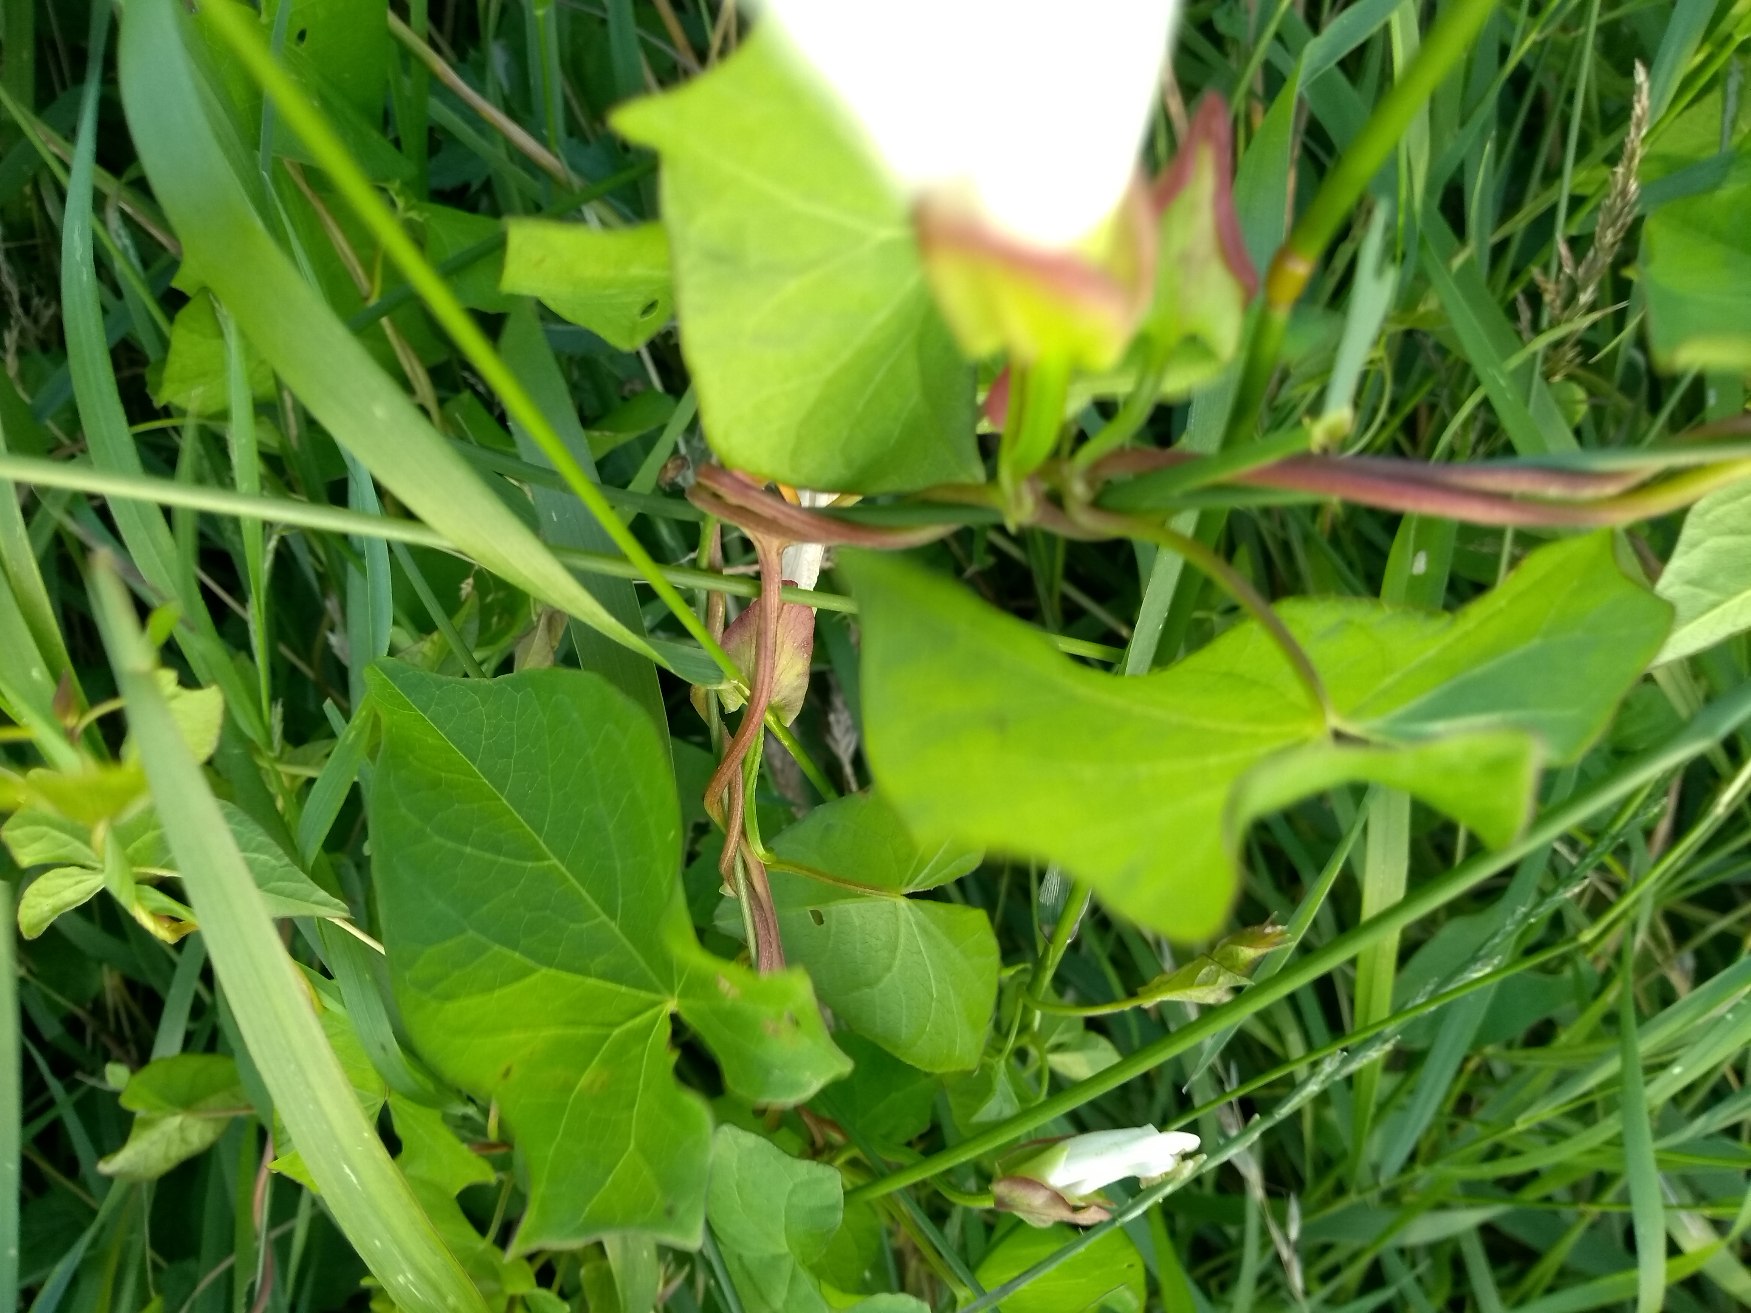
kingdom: Plantae
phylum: Tracheophyta
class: Magnoliopsida
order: Solanales
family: Convolvulaceae
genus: Calystegia
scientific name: Calystegia sepium
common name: Gærde-snerle
